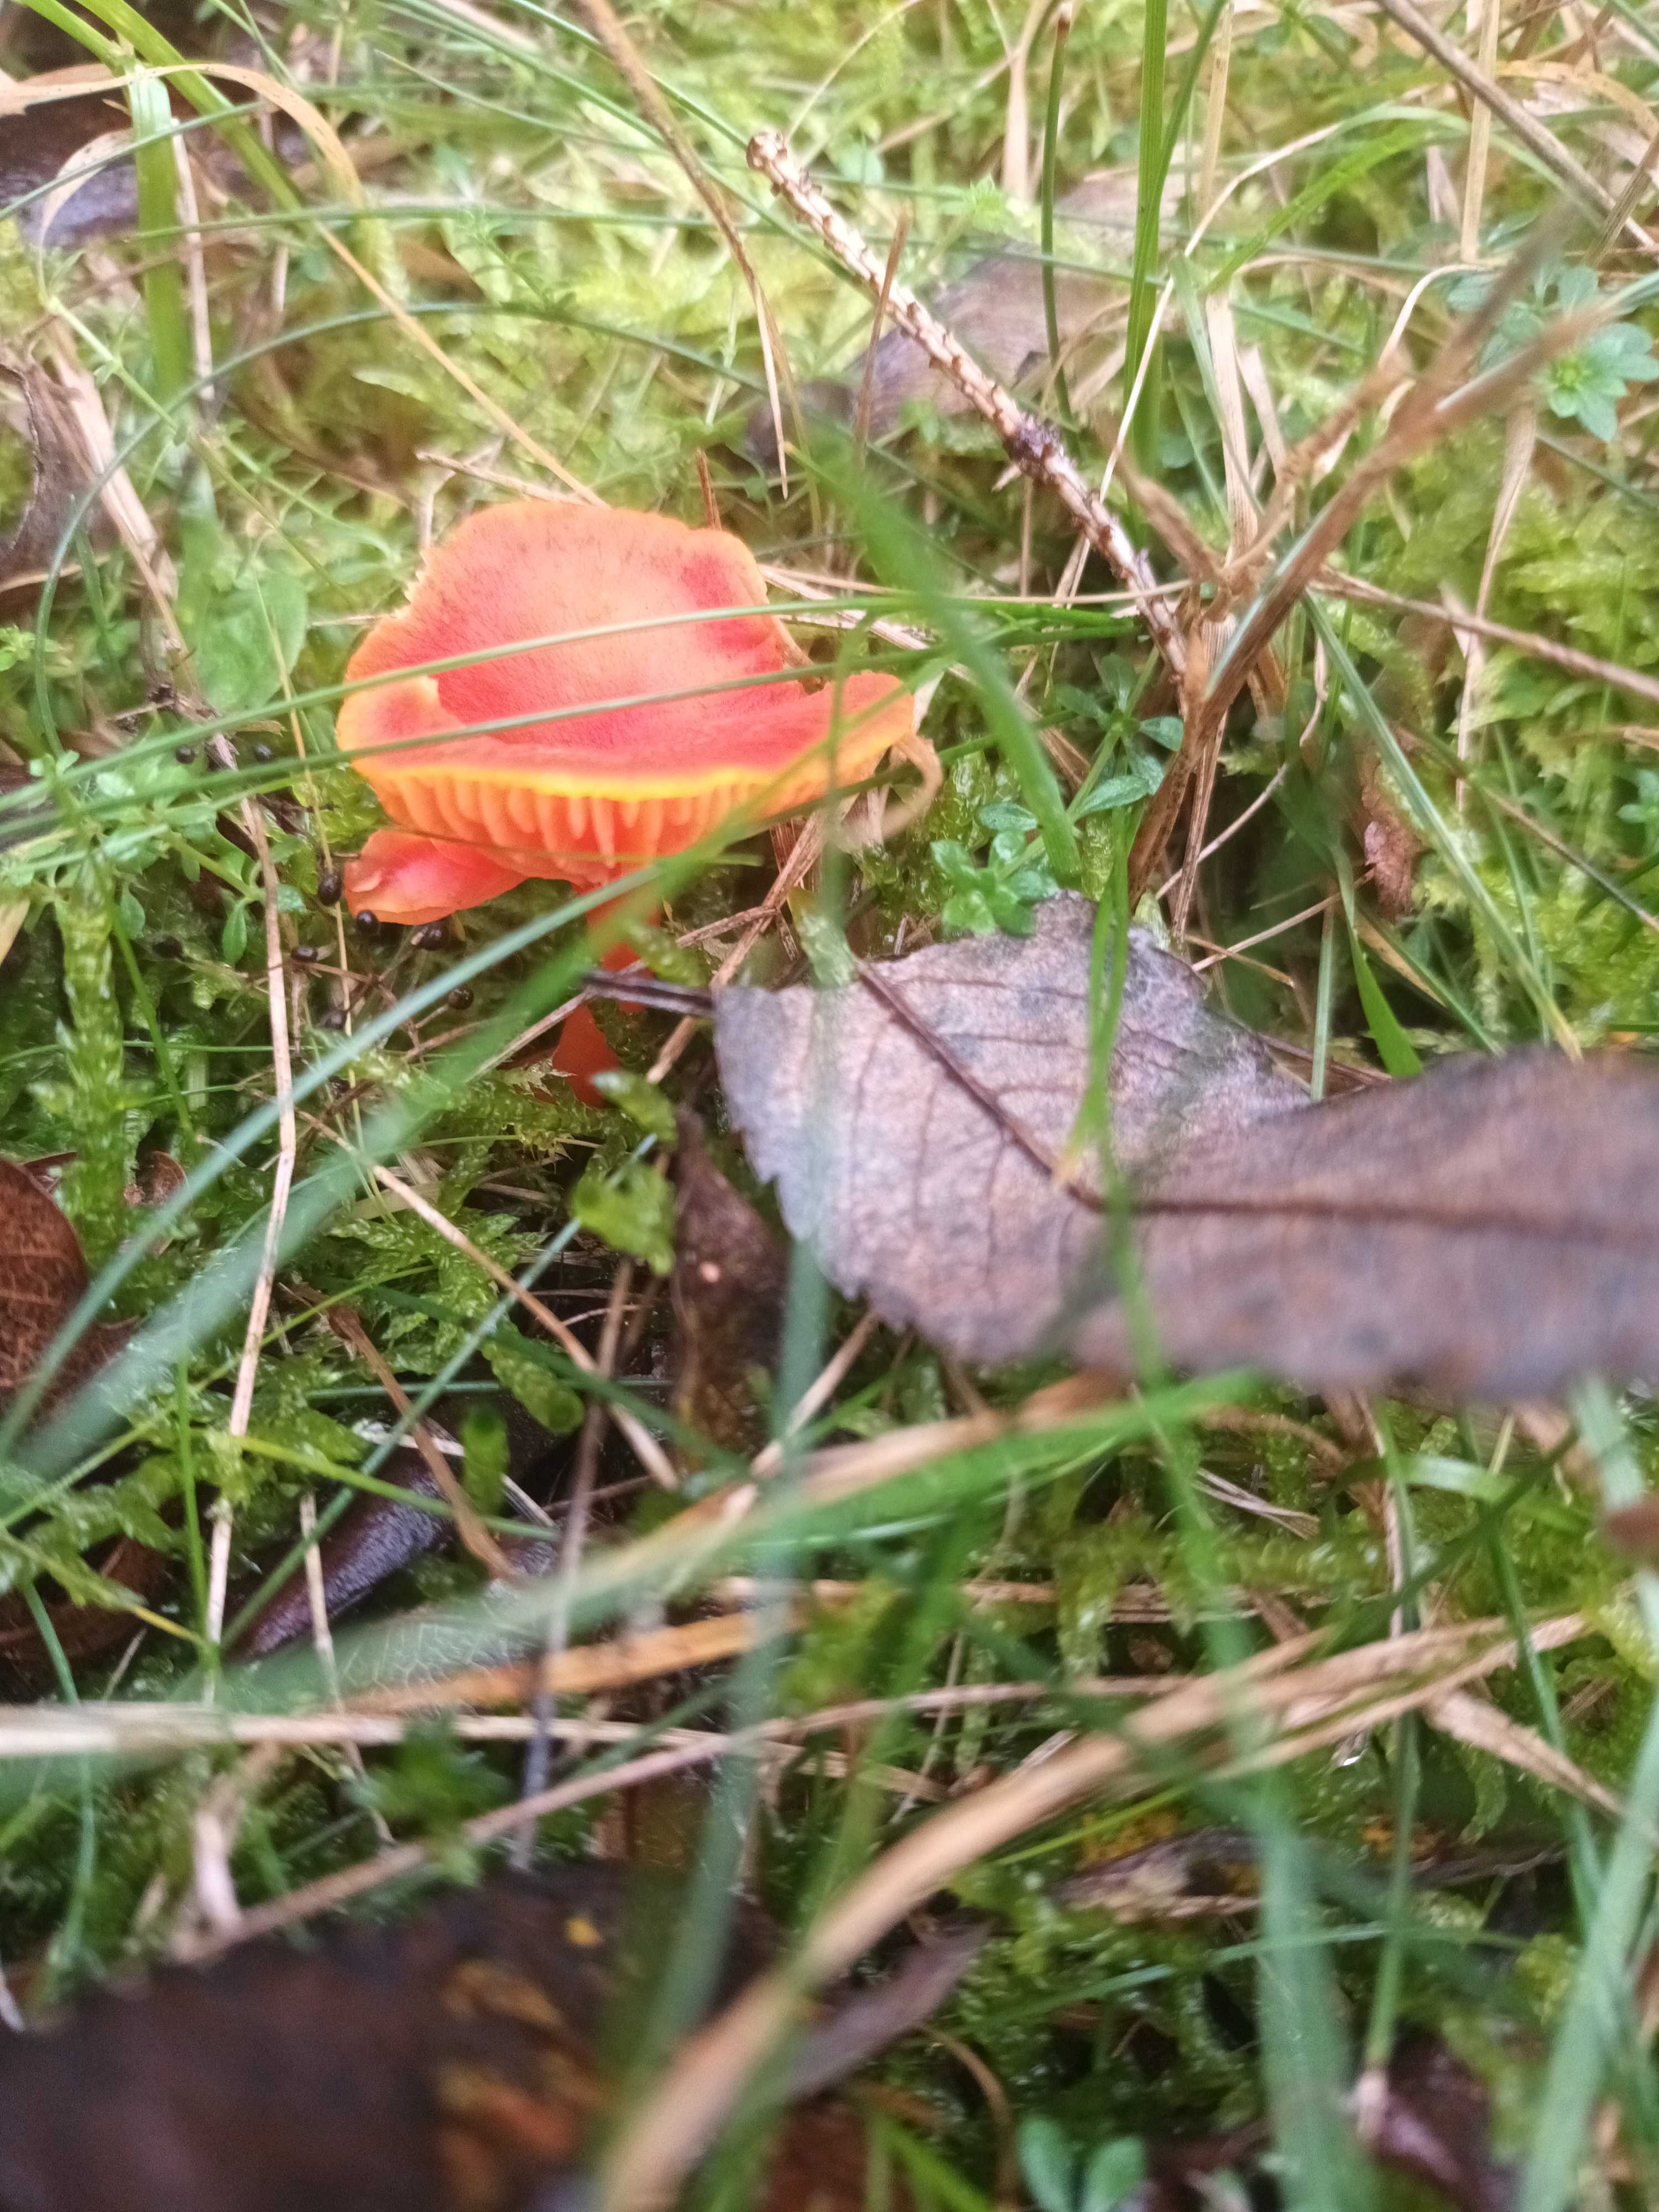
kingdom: Fungi
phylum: Basidiomycota
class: Agaricomycetes
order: Agaricales
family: Hygrophoraceae
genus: Hygrocybe
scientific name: Hygrocybe
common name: vokshat
